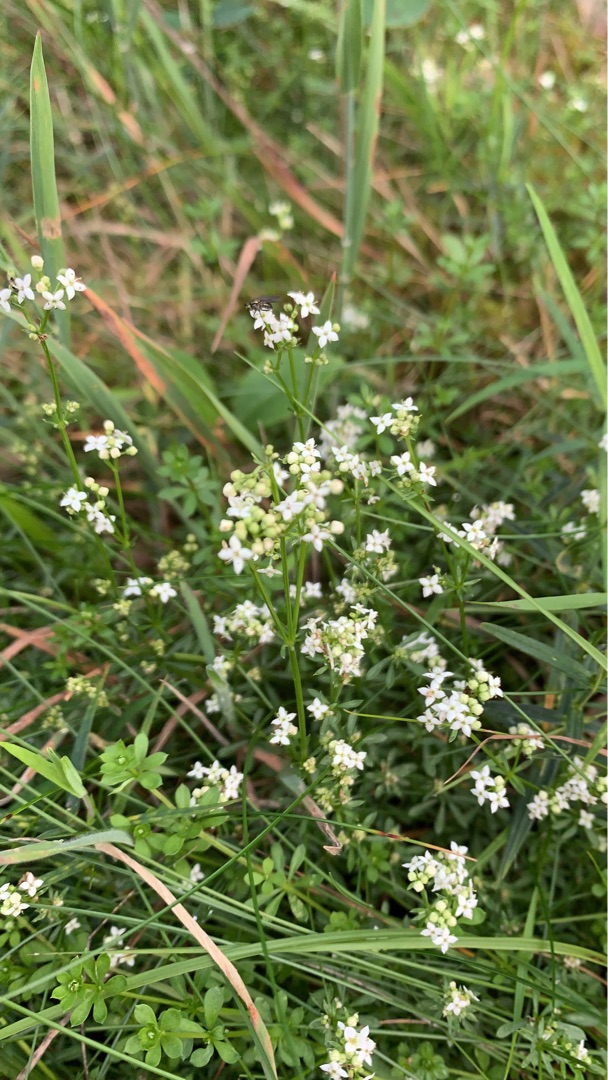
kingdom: Plantae
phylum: Tracheophyta
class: Magnoliopsida
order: Gentianales
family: Rubiaceae
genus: Galium
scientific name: Galium saxatile
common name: Lyng-snerre
